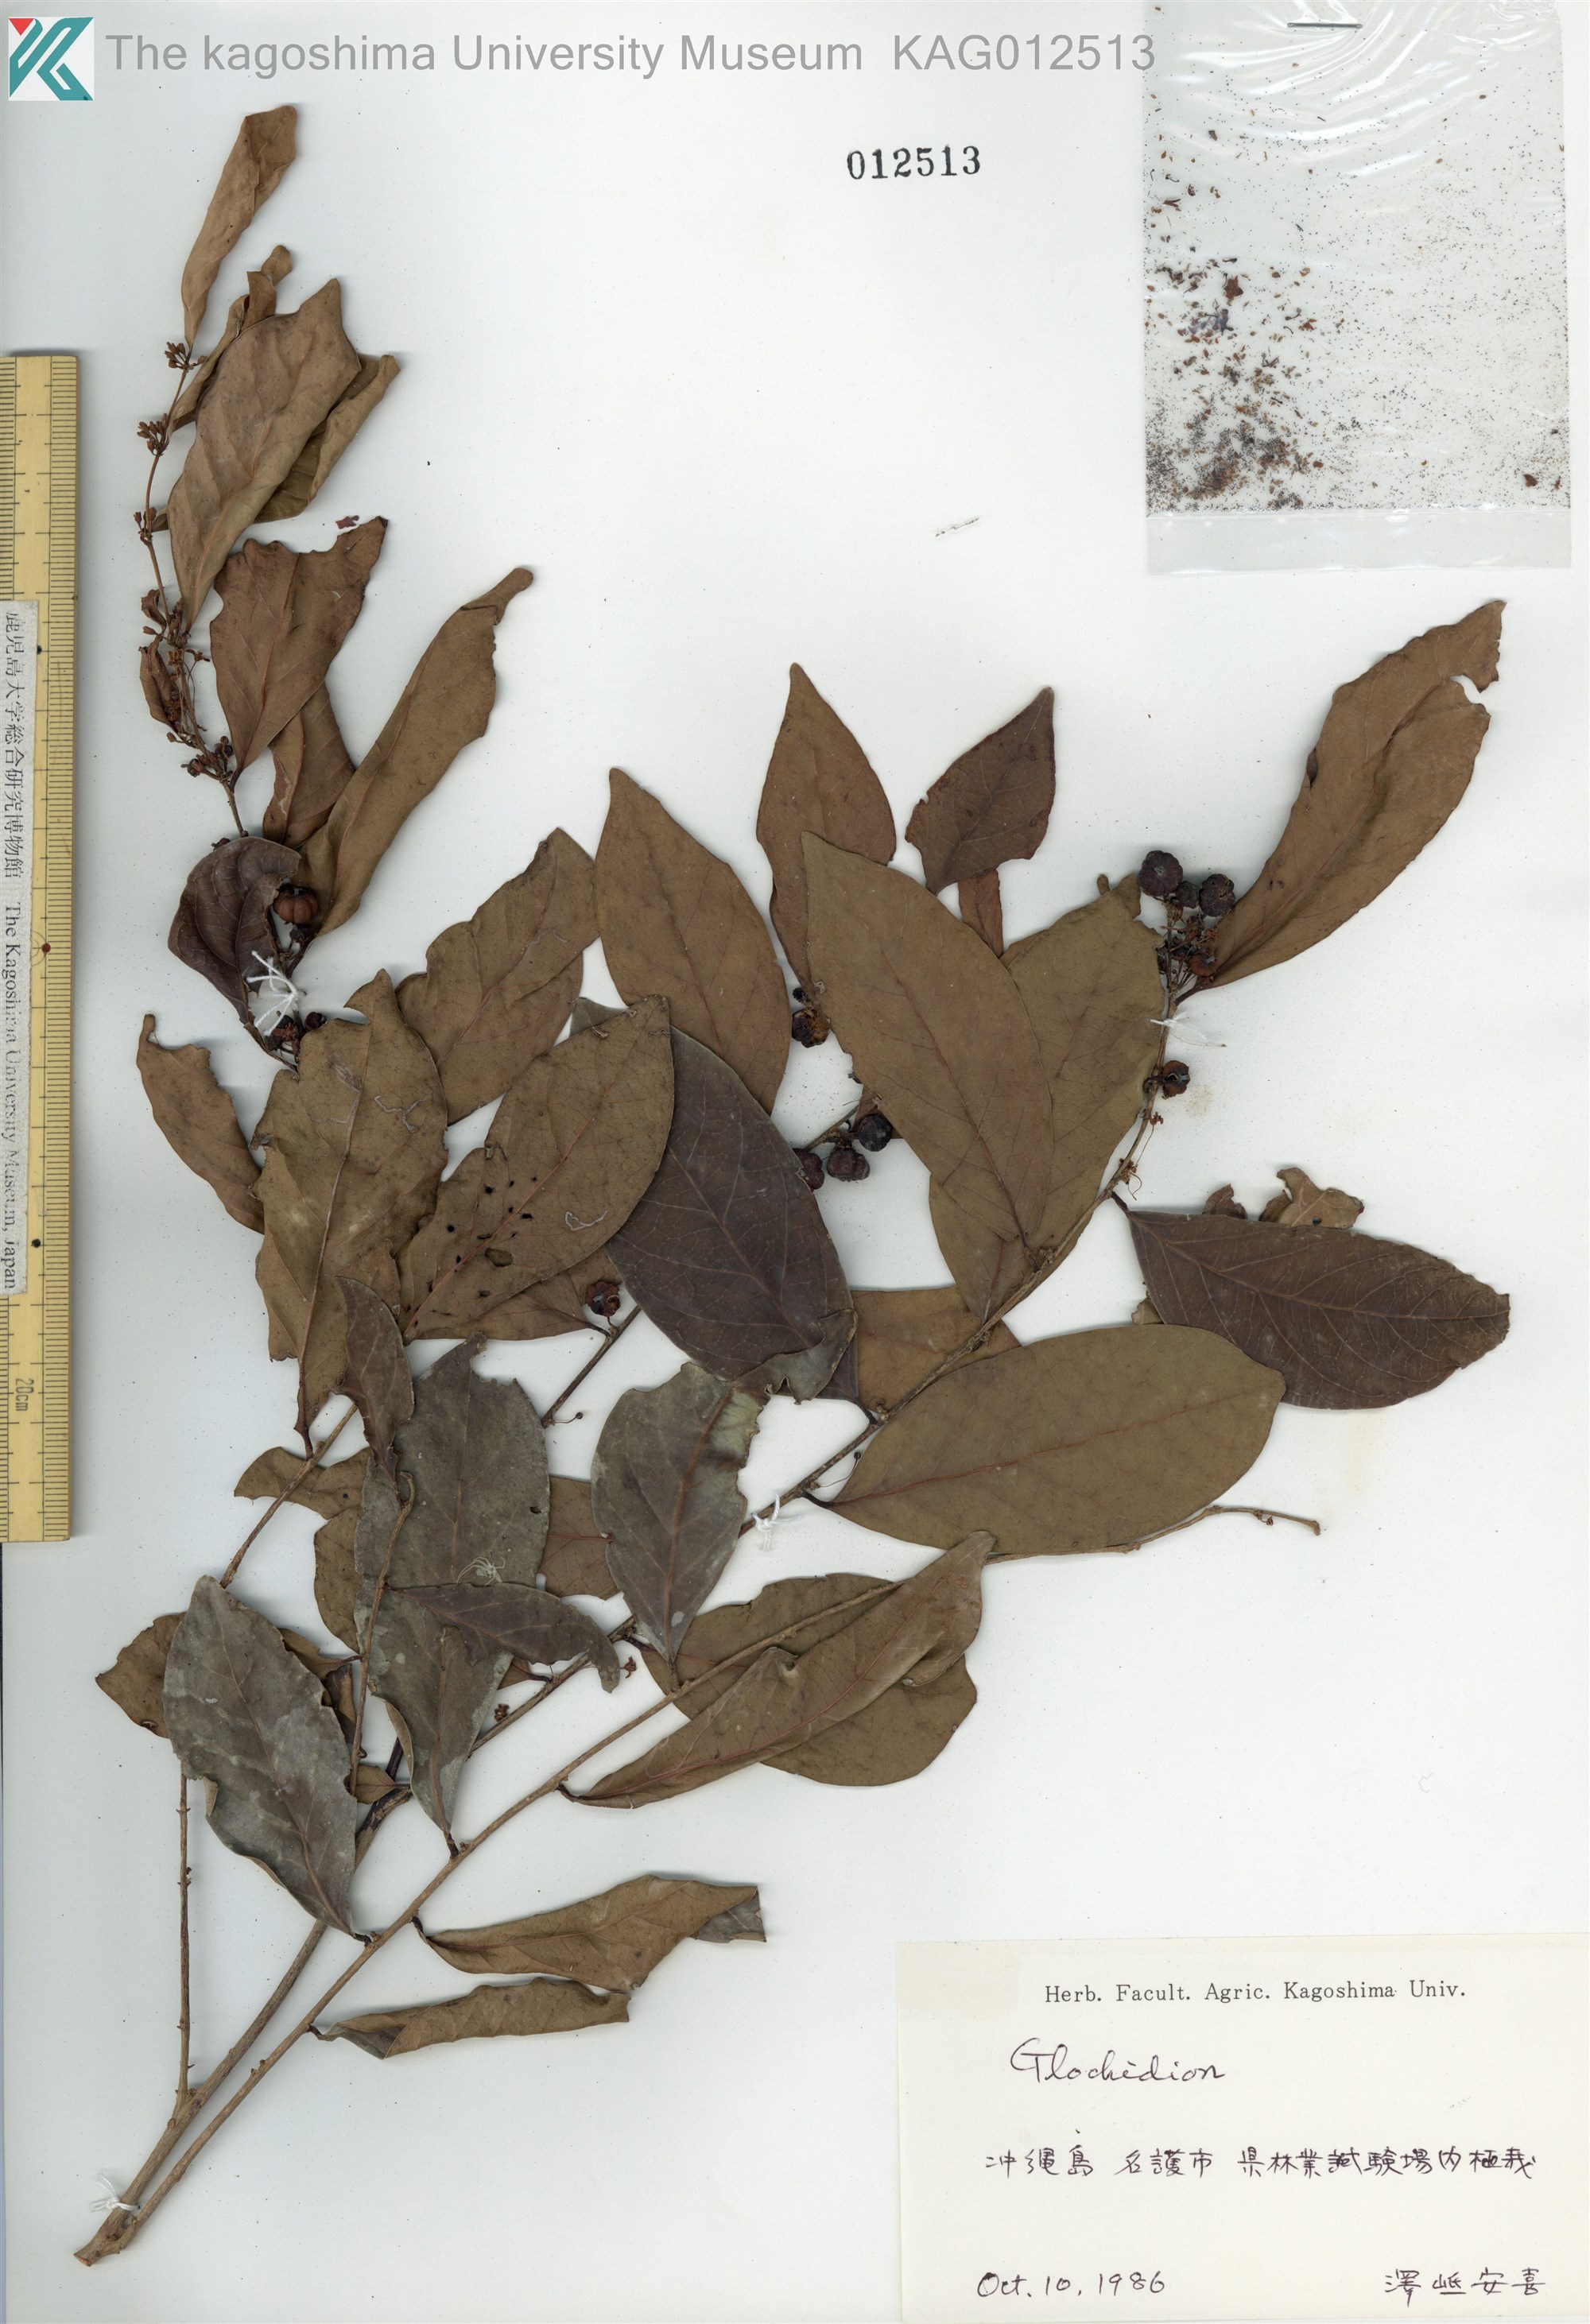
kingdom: Plantae
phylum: Tracheophyta
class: Magnoliopsida
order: Malpighiales
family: Phyllanthaceae
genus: Glochidion
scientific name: Glochidion zeylanicum
